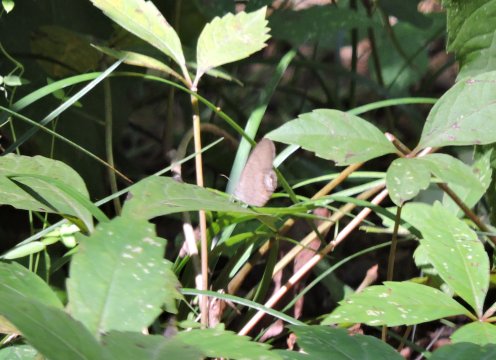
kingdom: Animalia
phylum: Arthropoda
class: Insecta
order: Lepidoptera
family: Nymphalidae
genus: Euptychia
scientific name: Euptychia cornelius
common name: Gemmed Satyr
